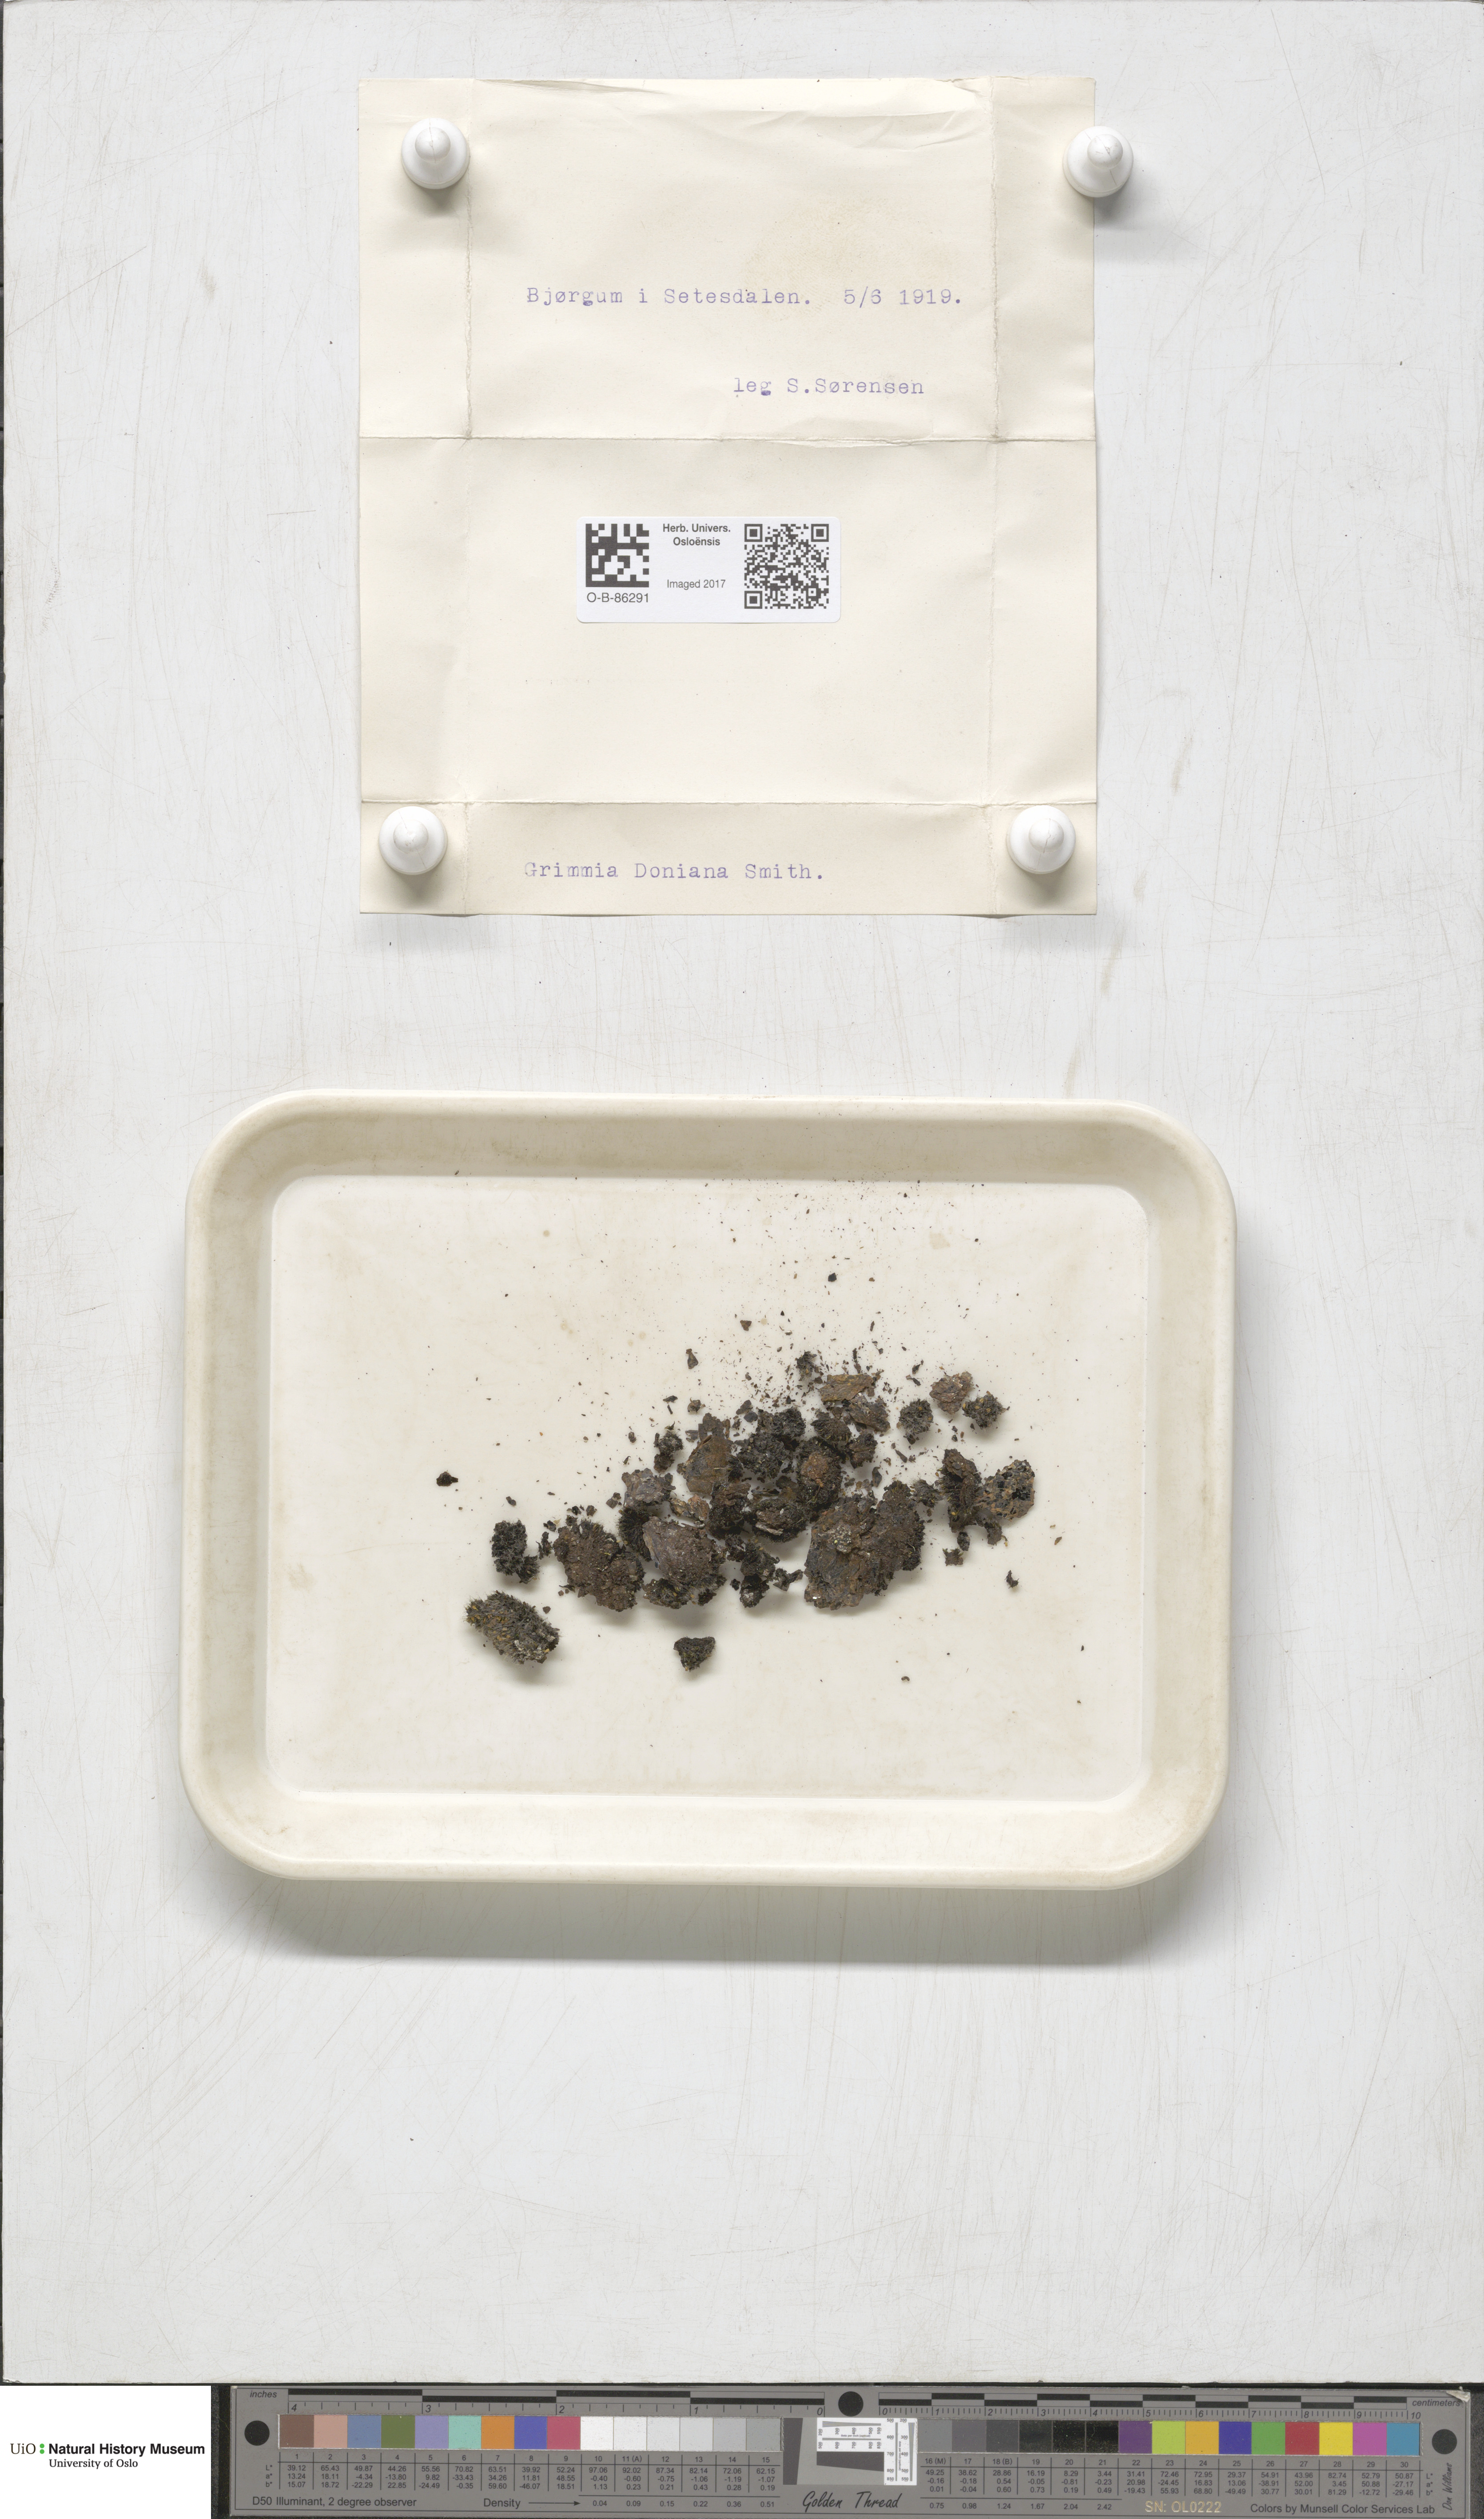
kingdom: Plantae
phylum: Bryophyta
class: Bryopsida
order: Grimmiales
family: Grimmiaceae
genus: Grimmia
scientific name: Grimmia donniana
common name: Donn's grimmia
